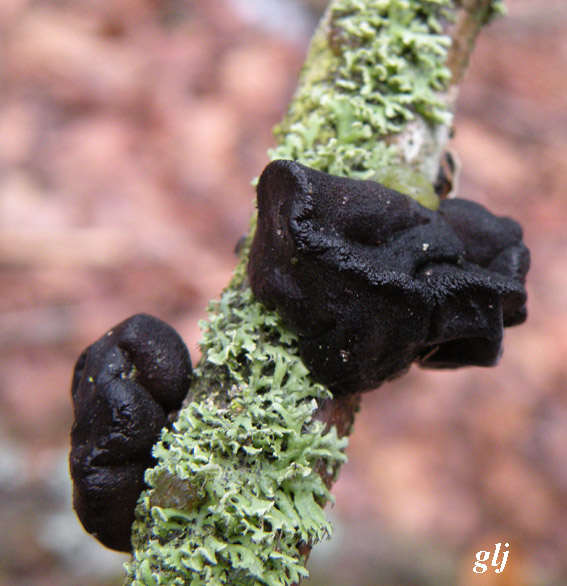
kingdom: Fungi
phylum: Basidiomycota
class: Agaricomycetes
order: Auriculariales
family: Auriculariaceae
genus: Exidia
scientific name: Exidia glandulosa
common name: ege-bævretop
